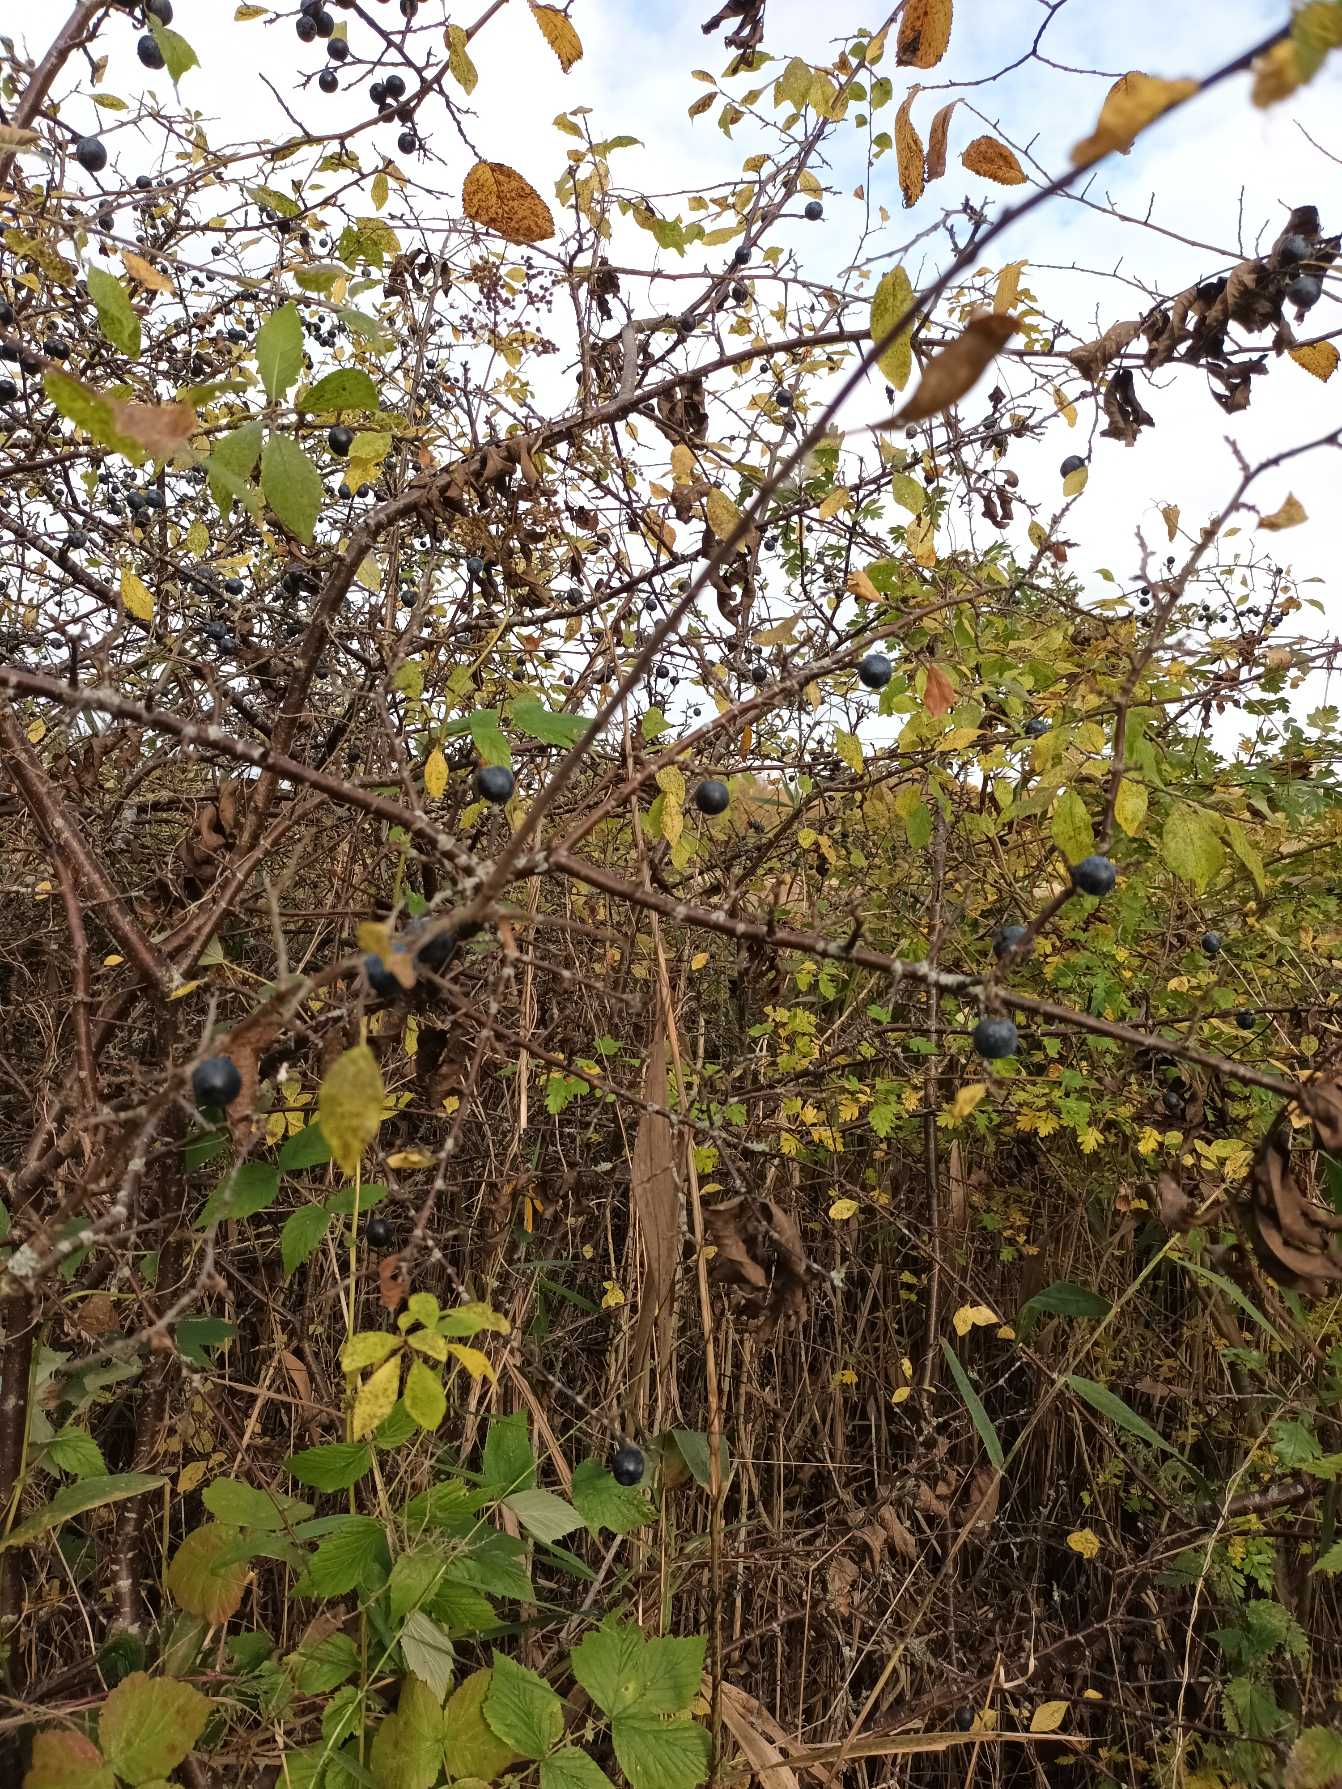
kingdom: Plantae
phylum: Tracheophyta
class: Magnoliopsida
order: Rosales
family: Rosaceae
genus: Prunus
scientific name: Prunus spinosa
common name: Slåen
